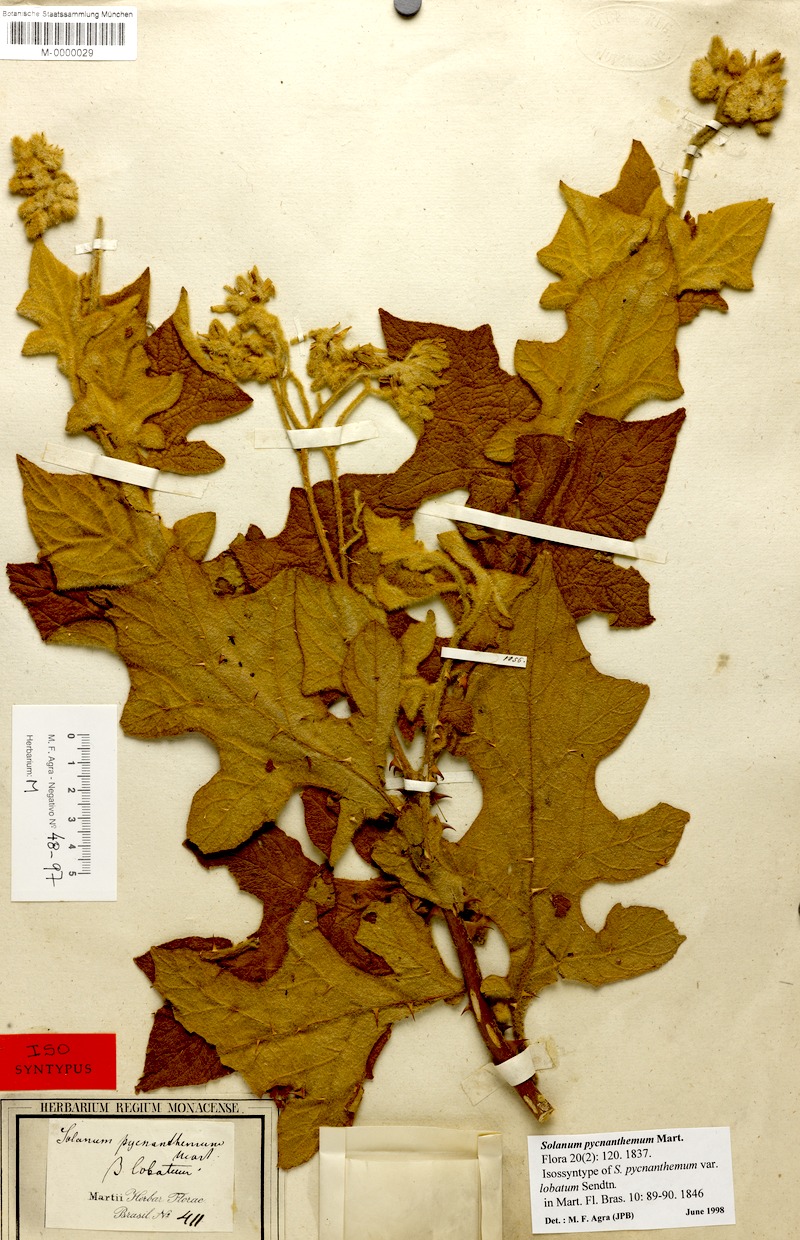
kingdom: Plantae
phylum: Tracheophyta
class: Magnoliopsida
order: Solanales
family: Solanaceae
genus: Solanum
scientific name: Solanum pycnanthemum
